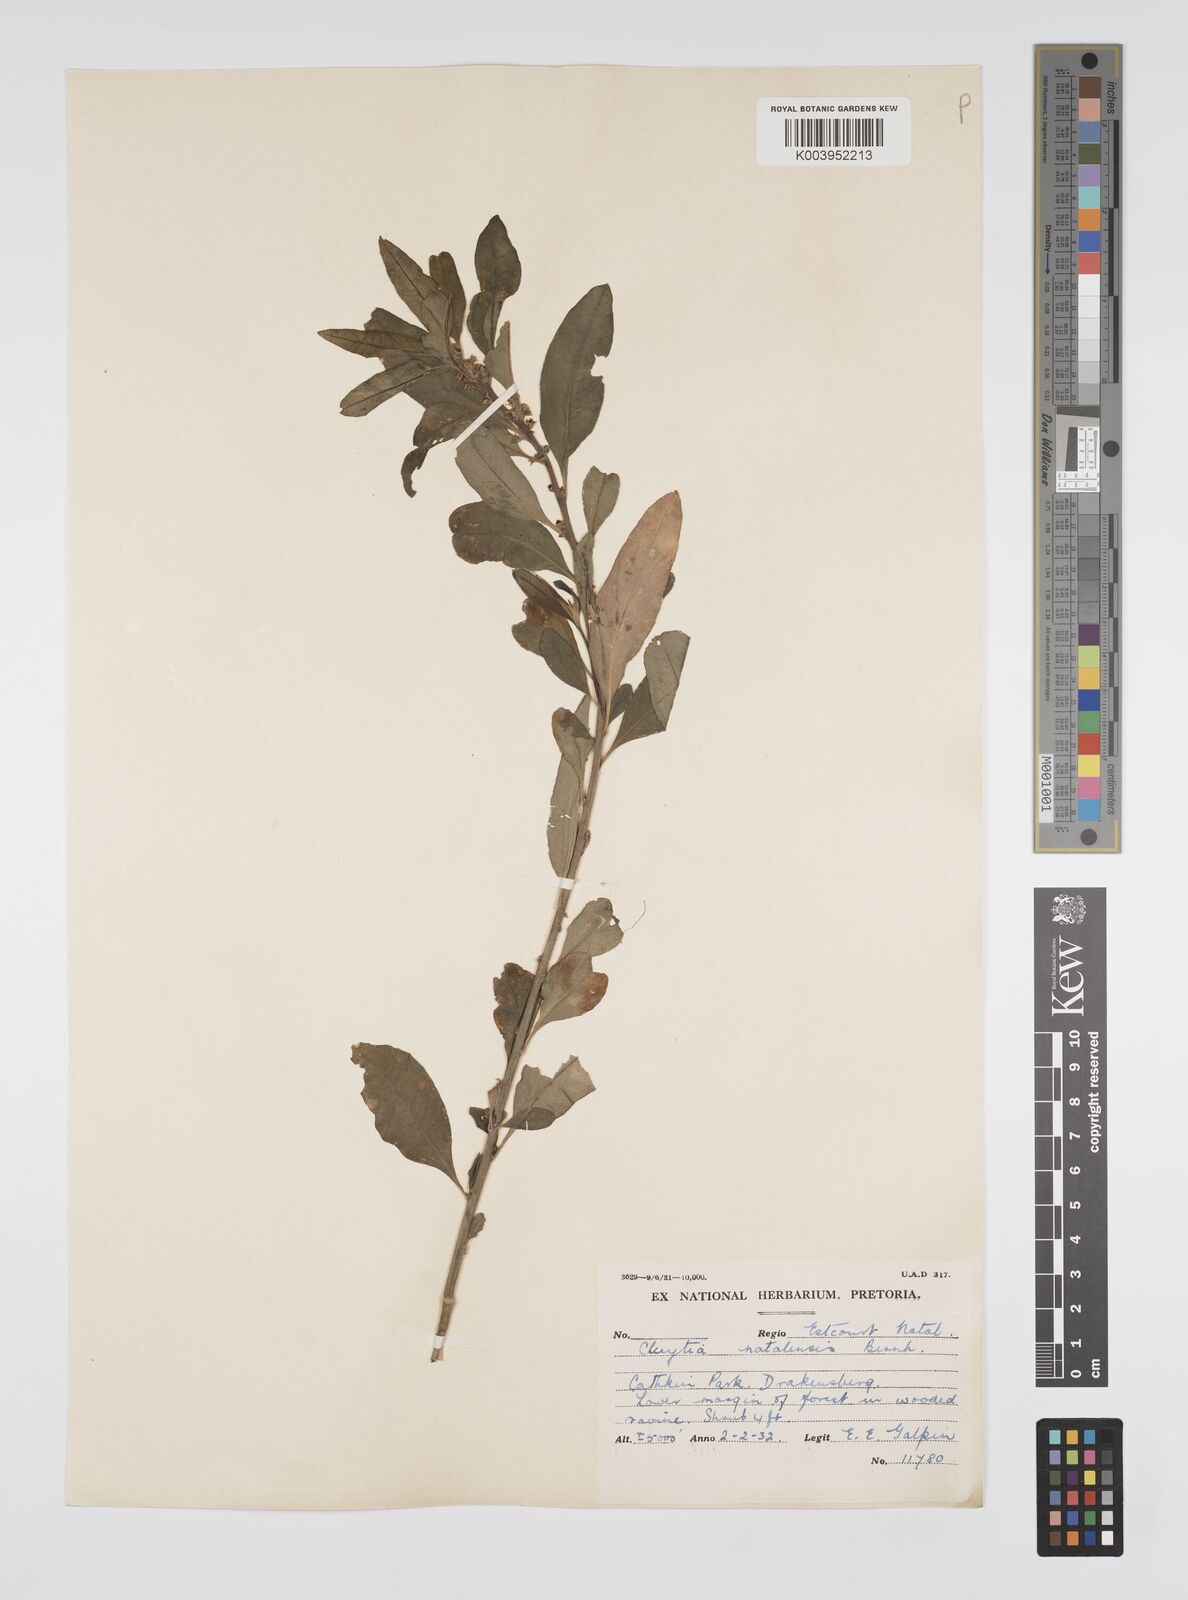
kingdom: Plantae
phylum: Tracheophyta
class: Magnoliopsida
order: Malpighiales
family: Peraceae
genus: Clutia
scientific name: Clutia natalensis
